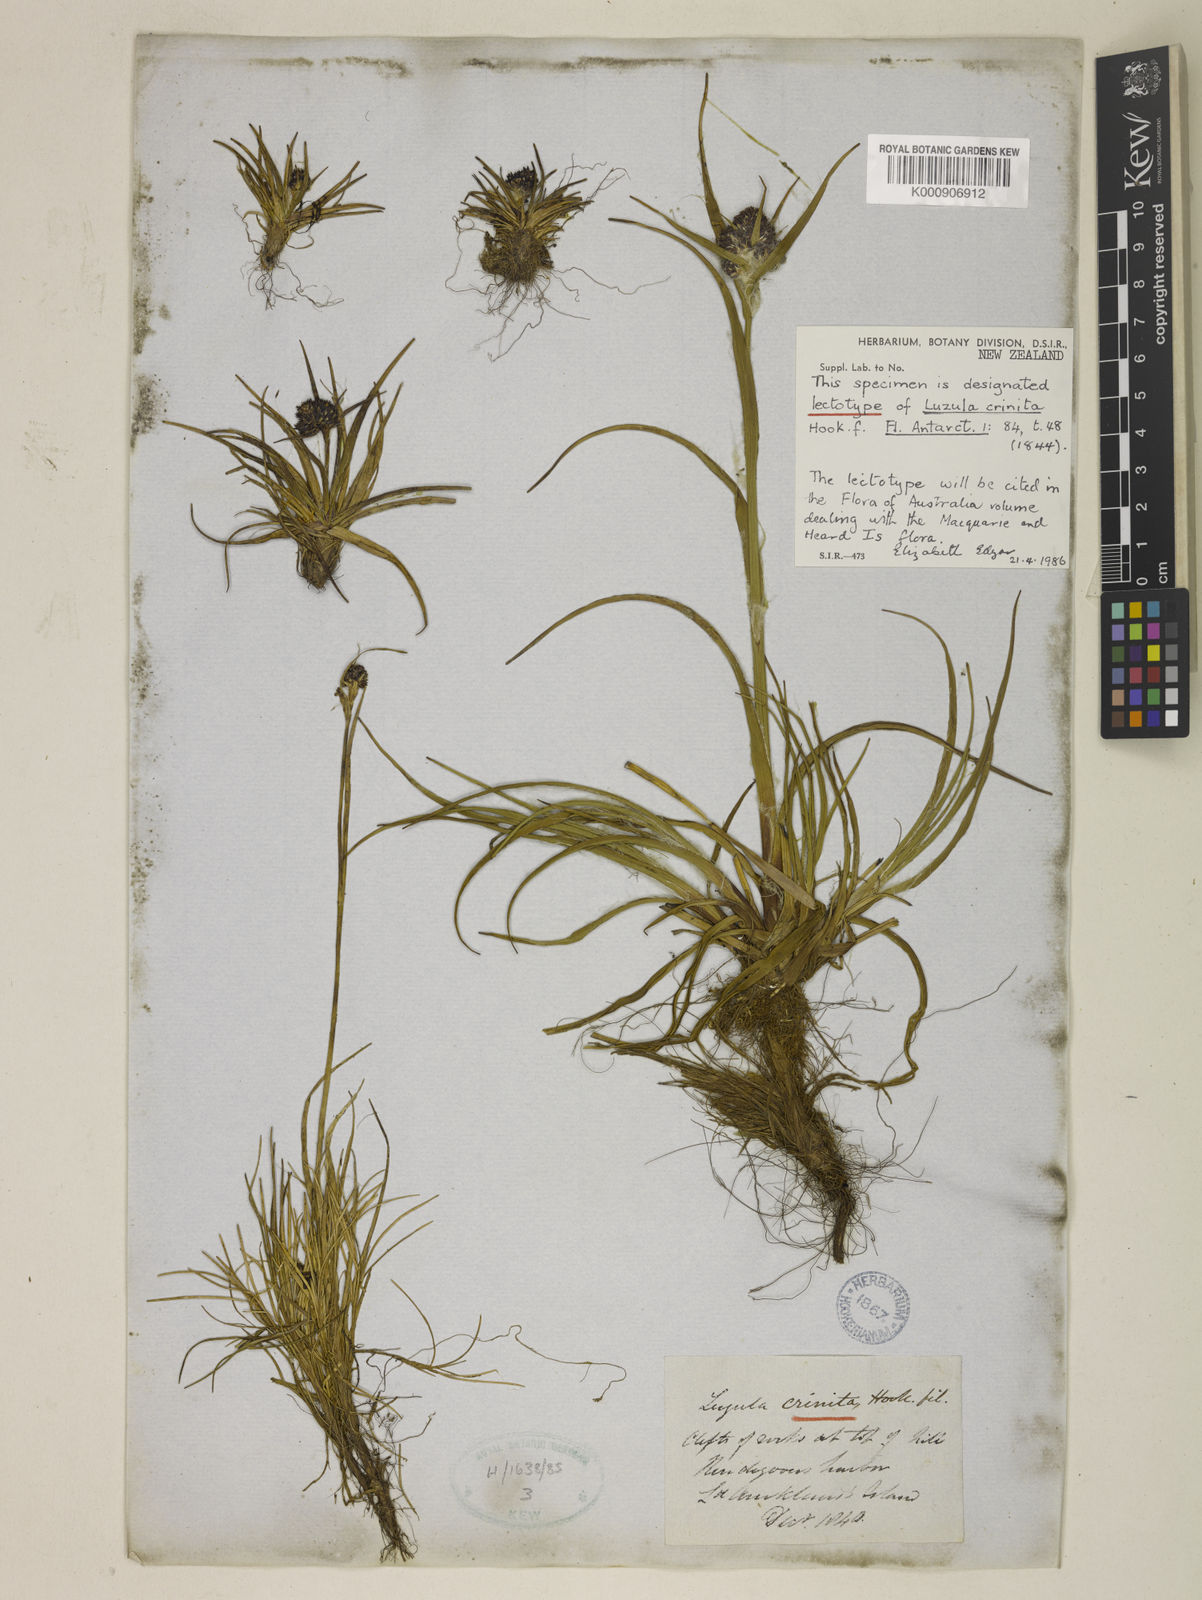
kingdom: Plantae
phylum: Tracheophyta
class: Liliopsida
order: Poales
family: Juncaceae
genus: Luzula
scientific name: Luzula crinita
